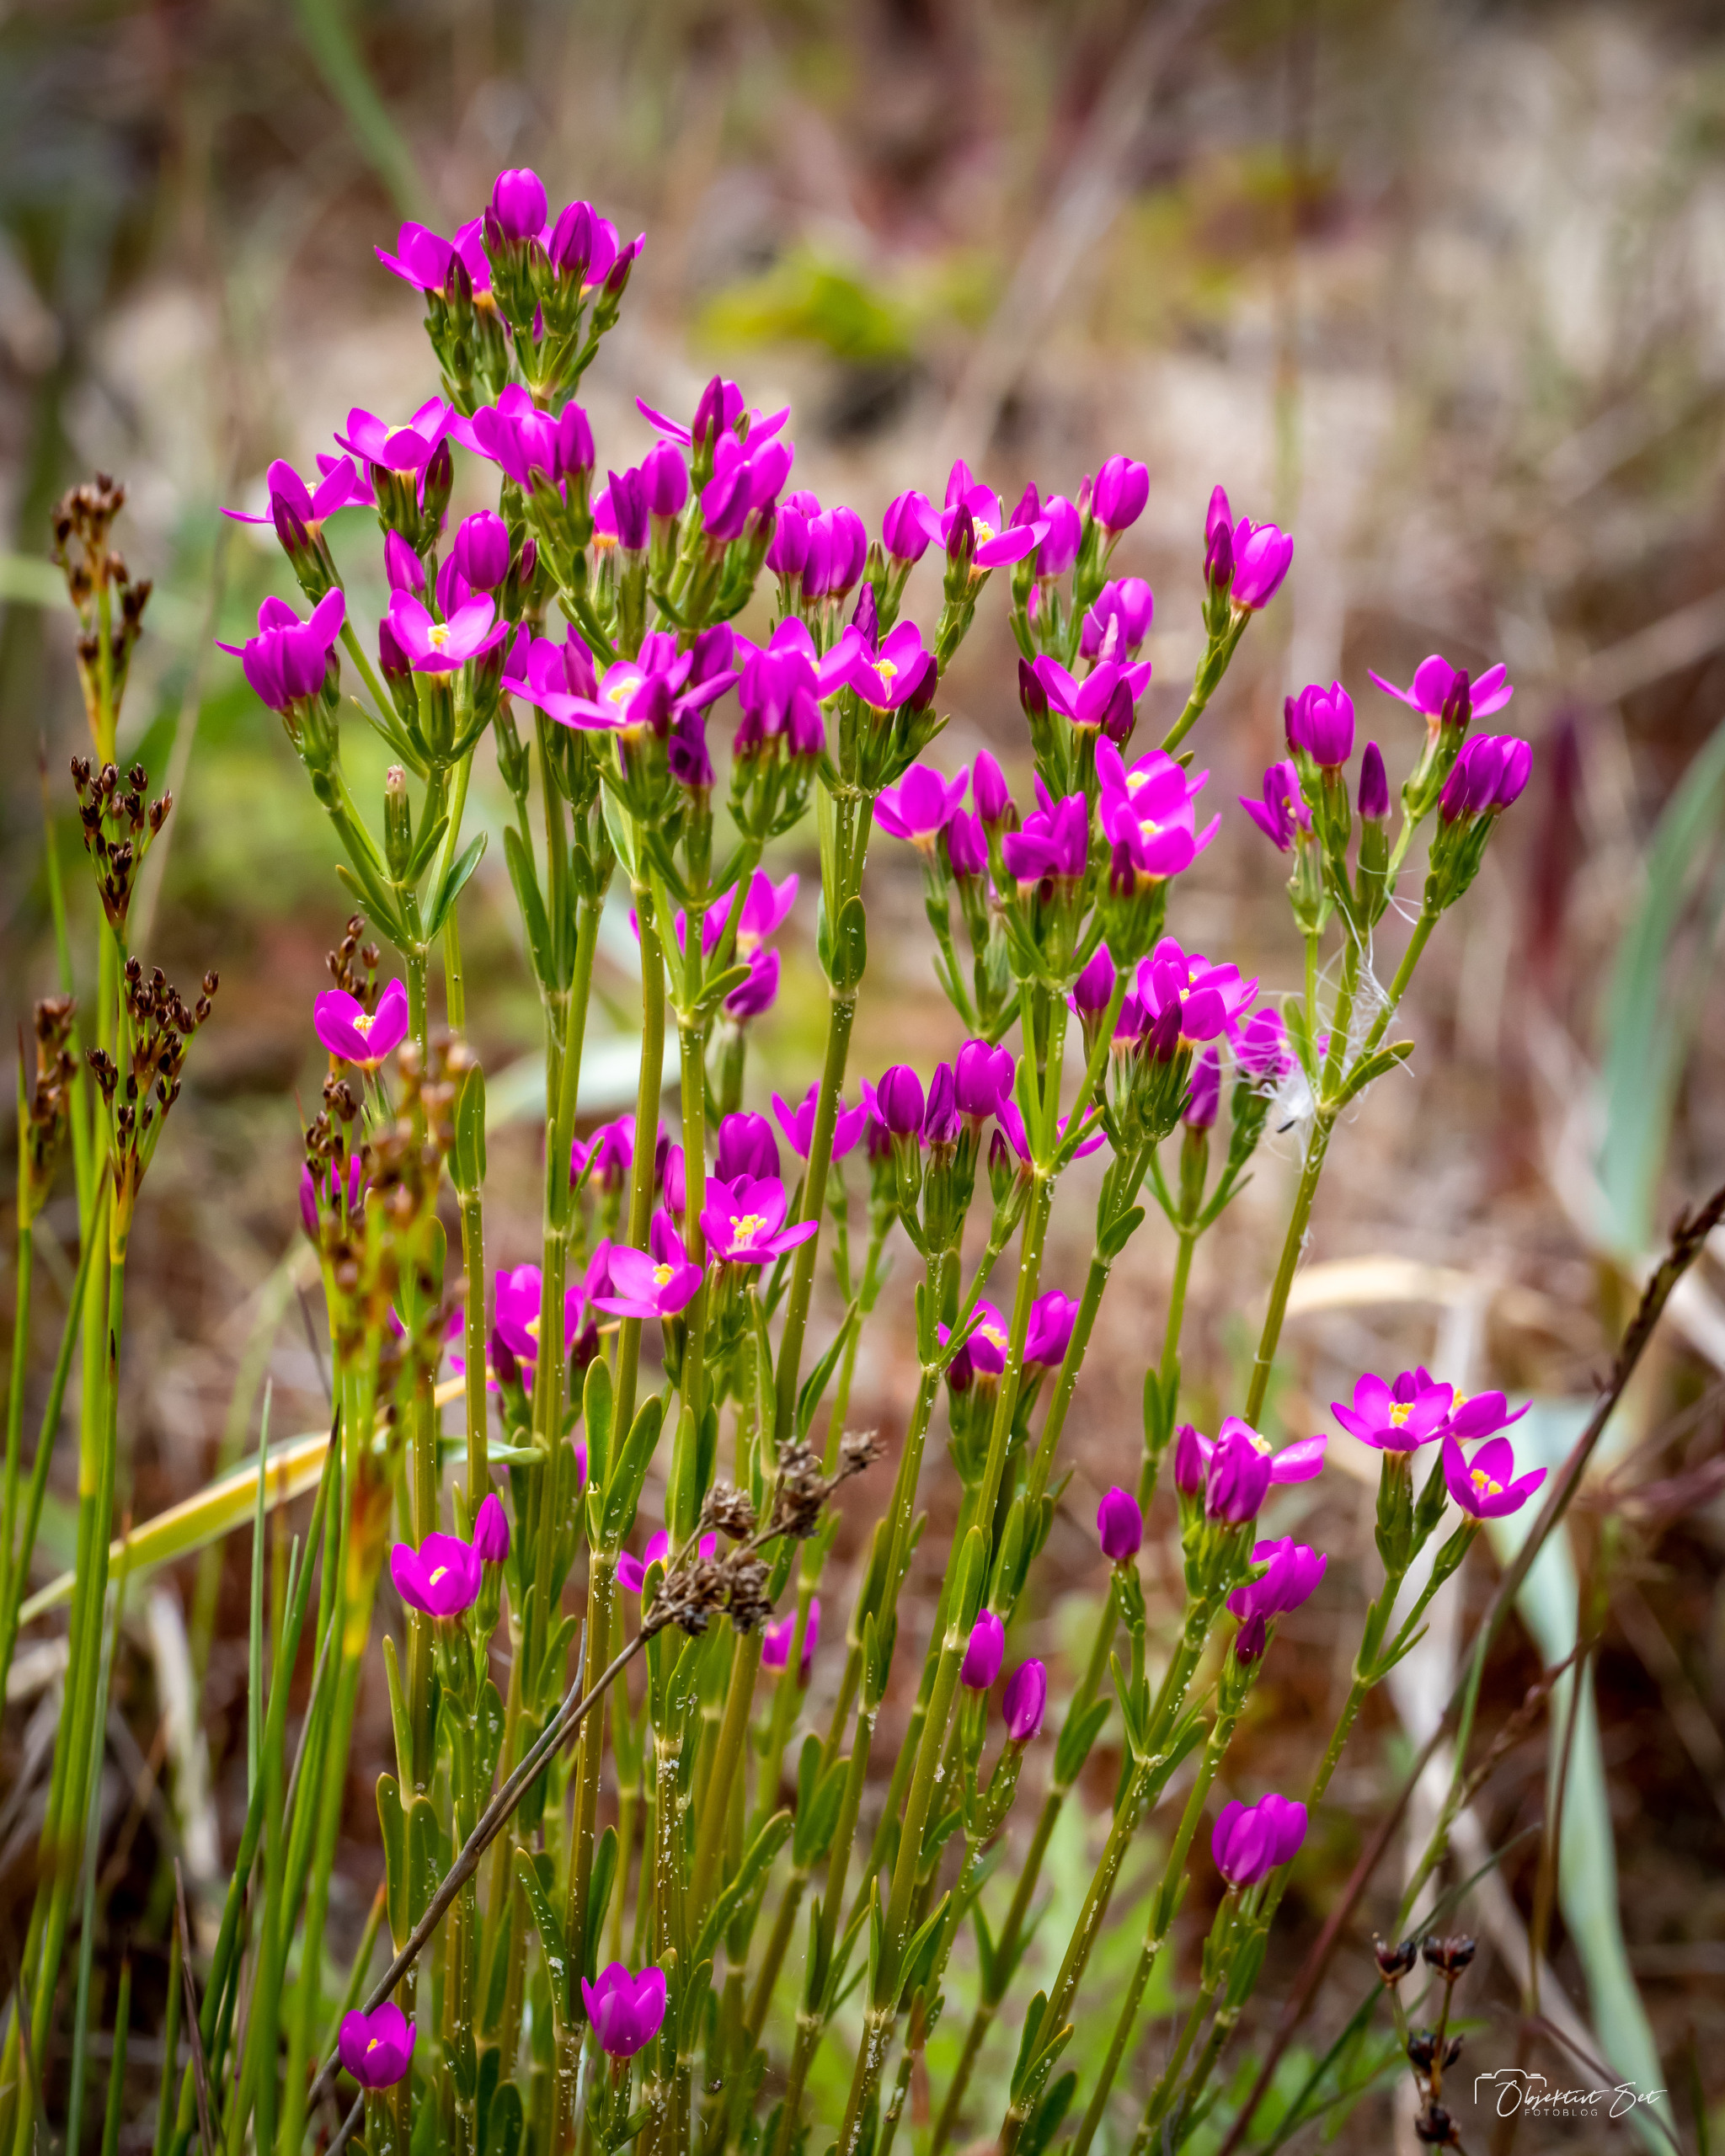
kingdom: Plantae
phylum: Tracheophyta
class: Magnoliopsida
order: Gentianales
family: Gentianaceae
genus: Centaurium
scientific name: Centaurium littorale
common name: Strand-tusindgylden
